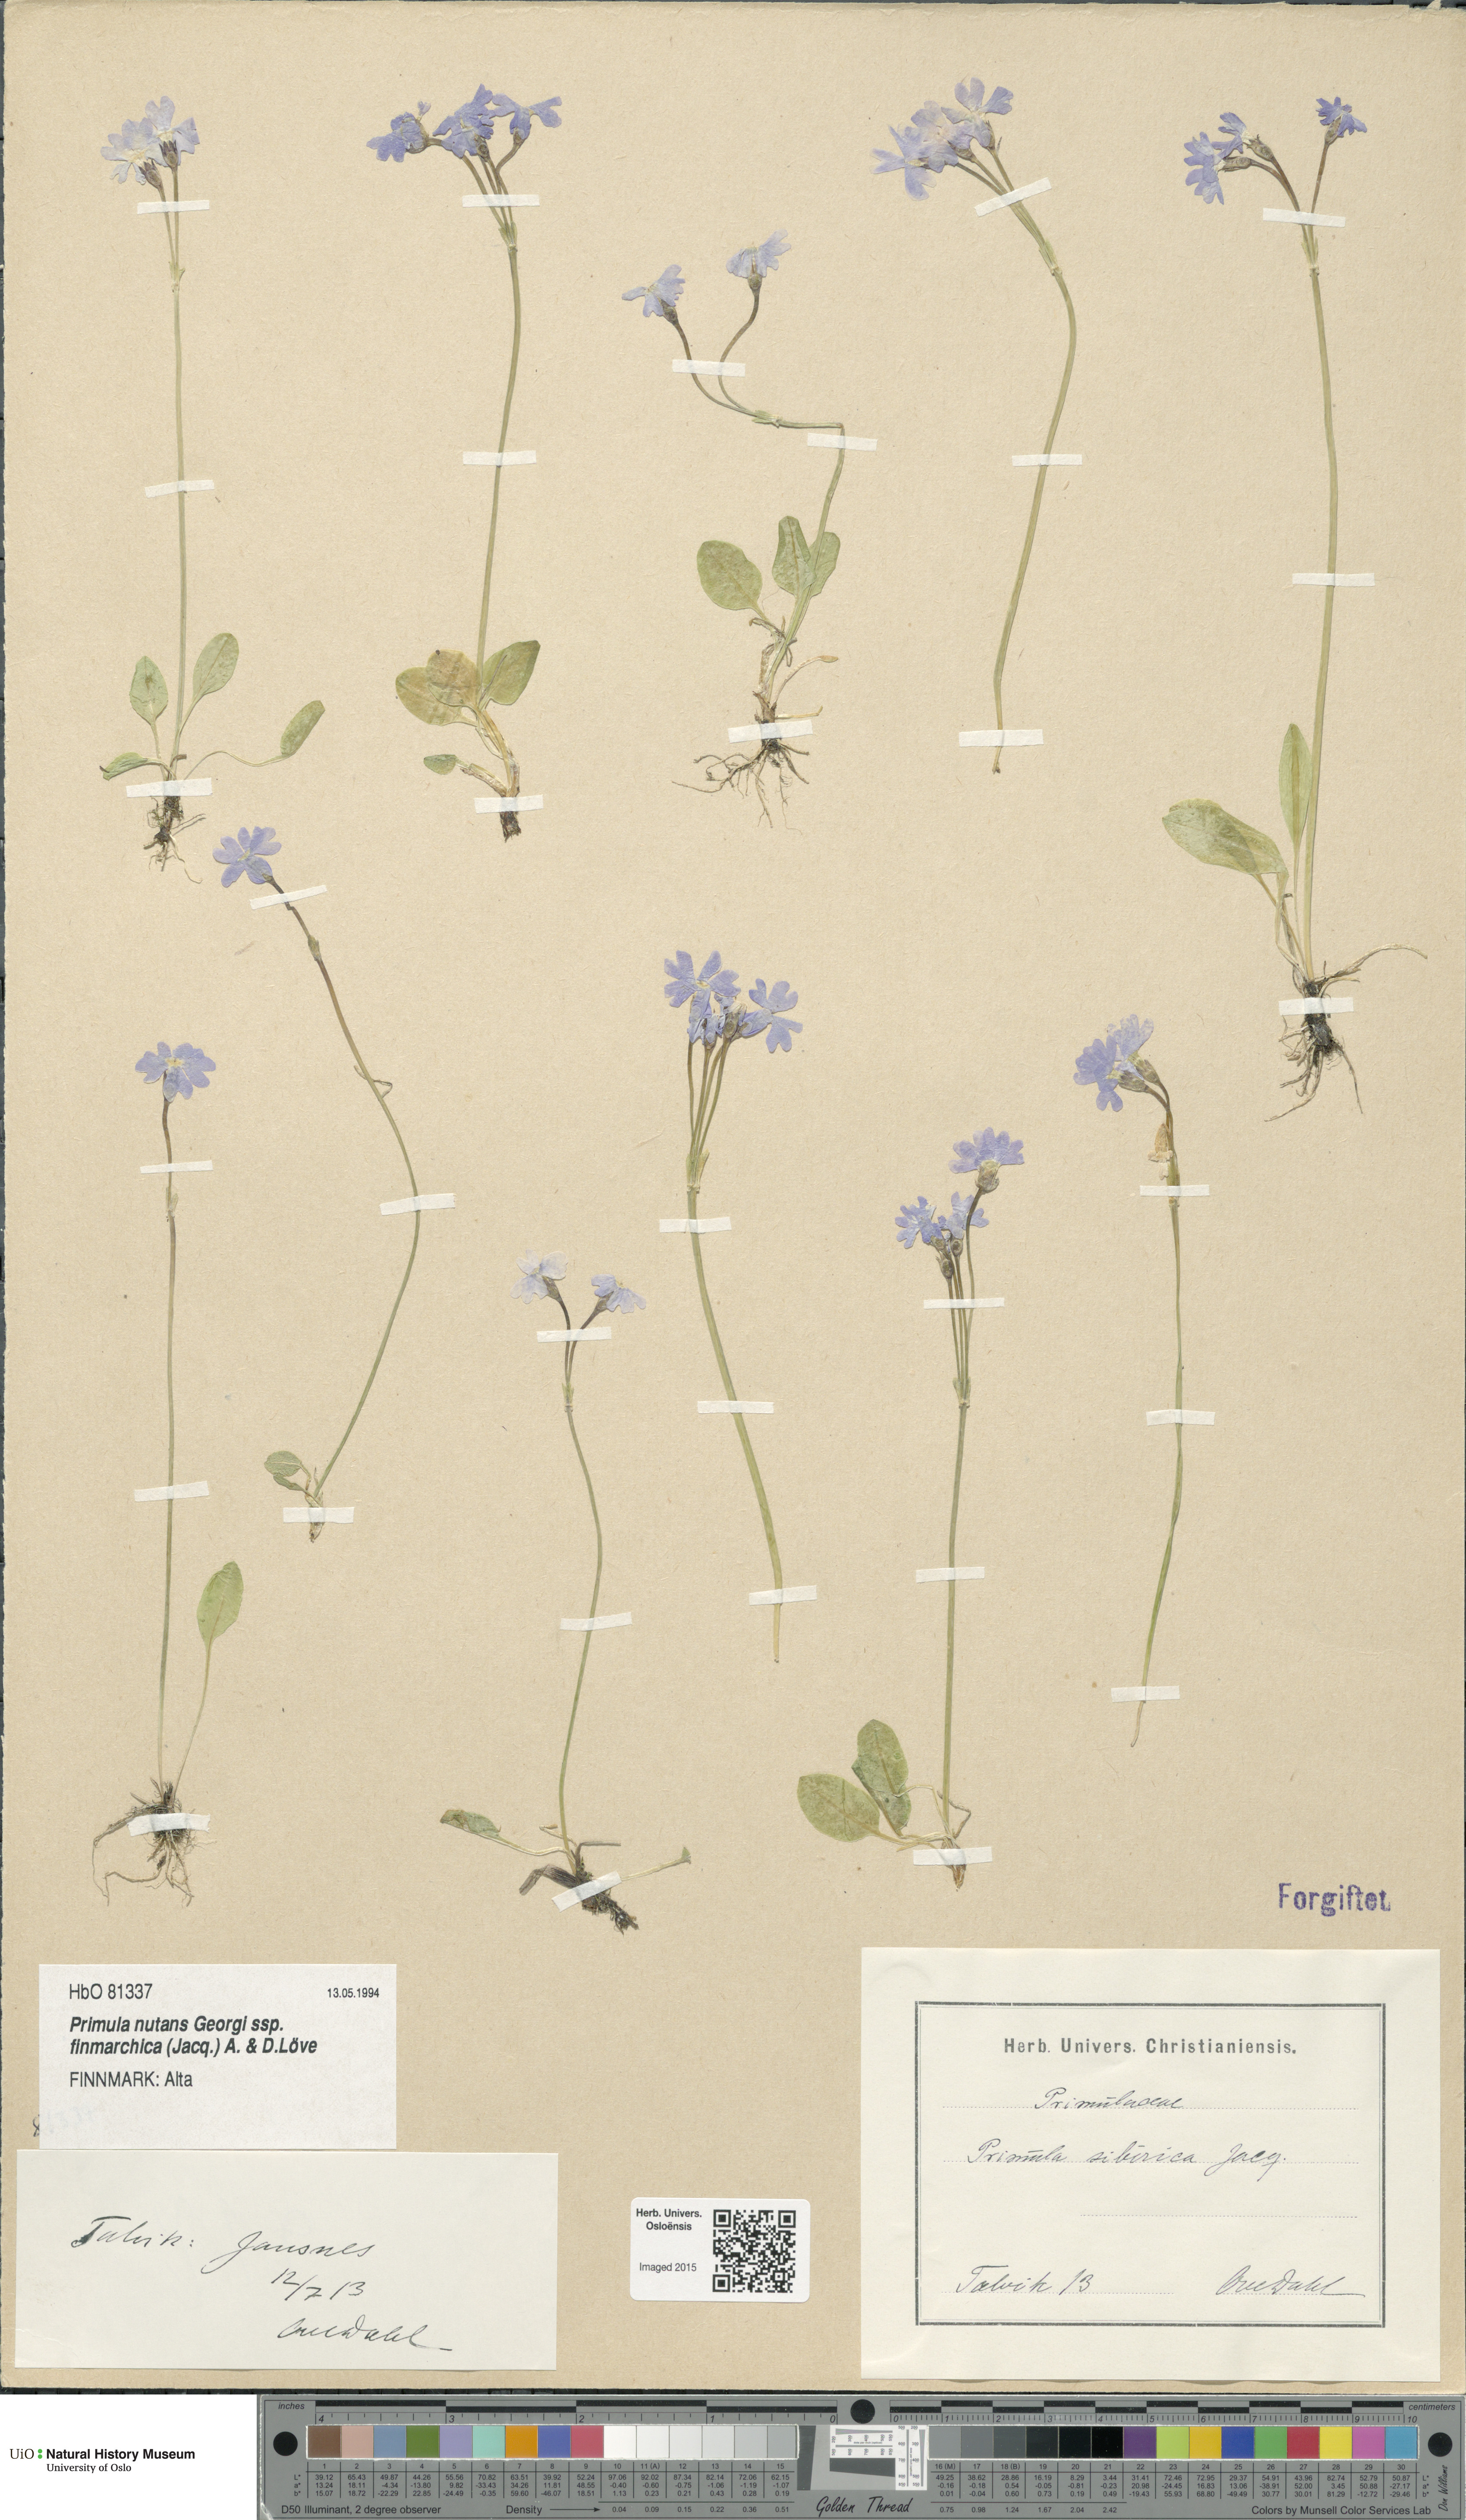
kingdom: Plantae
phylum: Tracheophyta
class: Magnoliopsida
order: Ericales
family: Primulaceae
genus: Primula
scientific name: Primula nutans
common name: Siberian primrose
